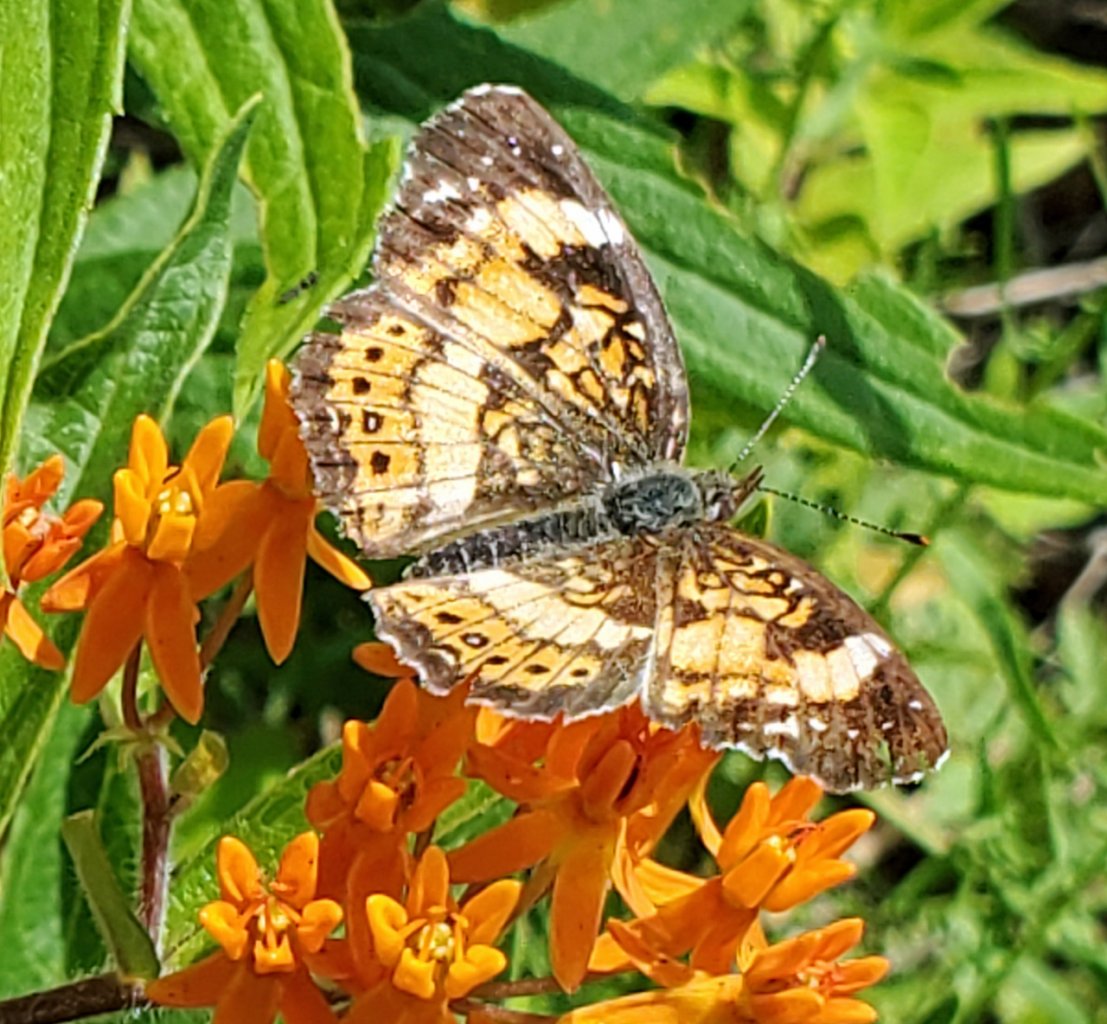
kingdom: Animalia
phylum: Arthropoda
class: Insecta
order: Lepidoptera
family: Nymphalidae
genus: Chlosyne
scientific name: Chlosyne nycteis
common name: Silvery Checkerspot
